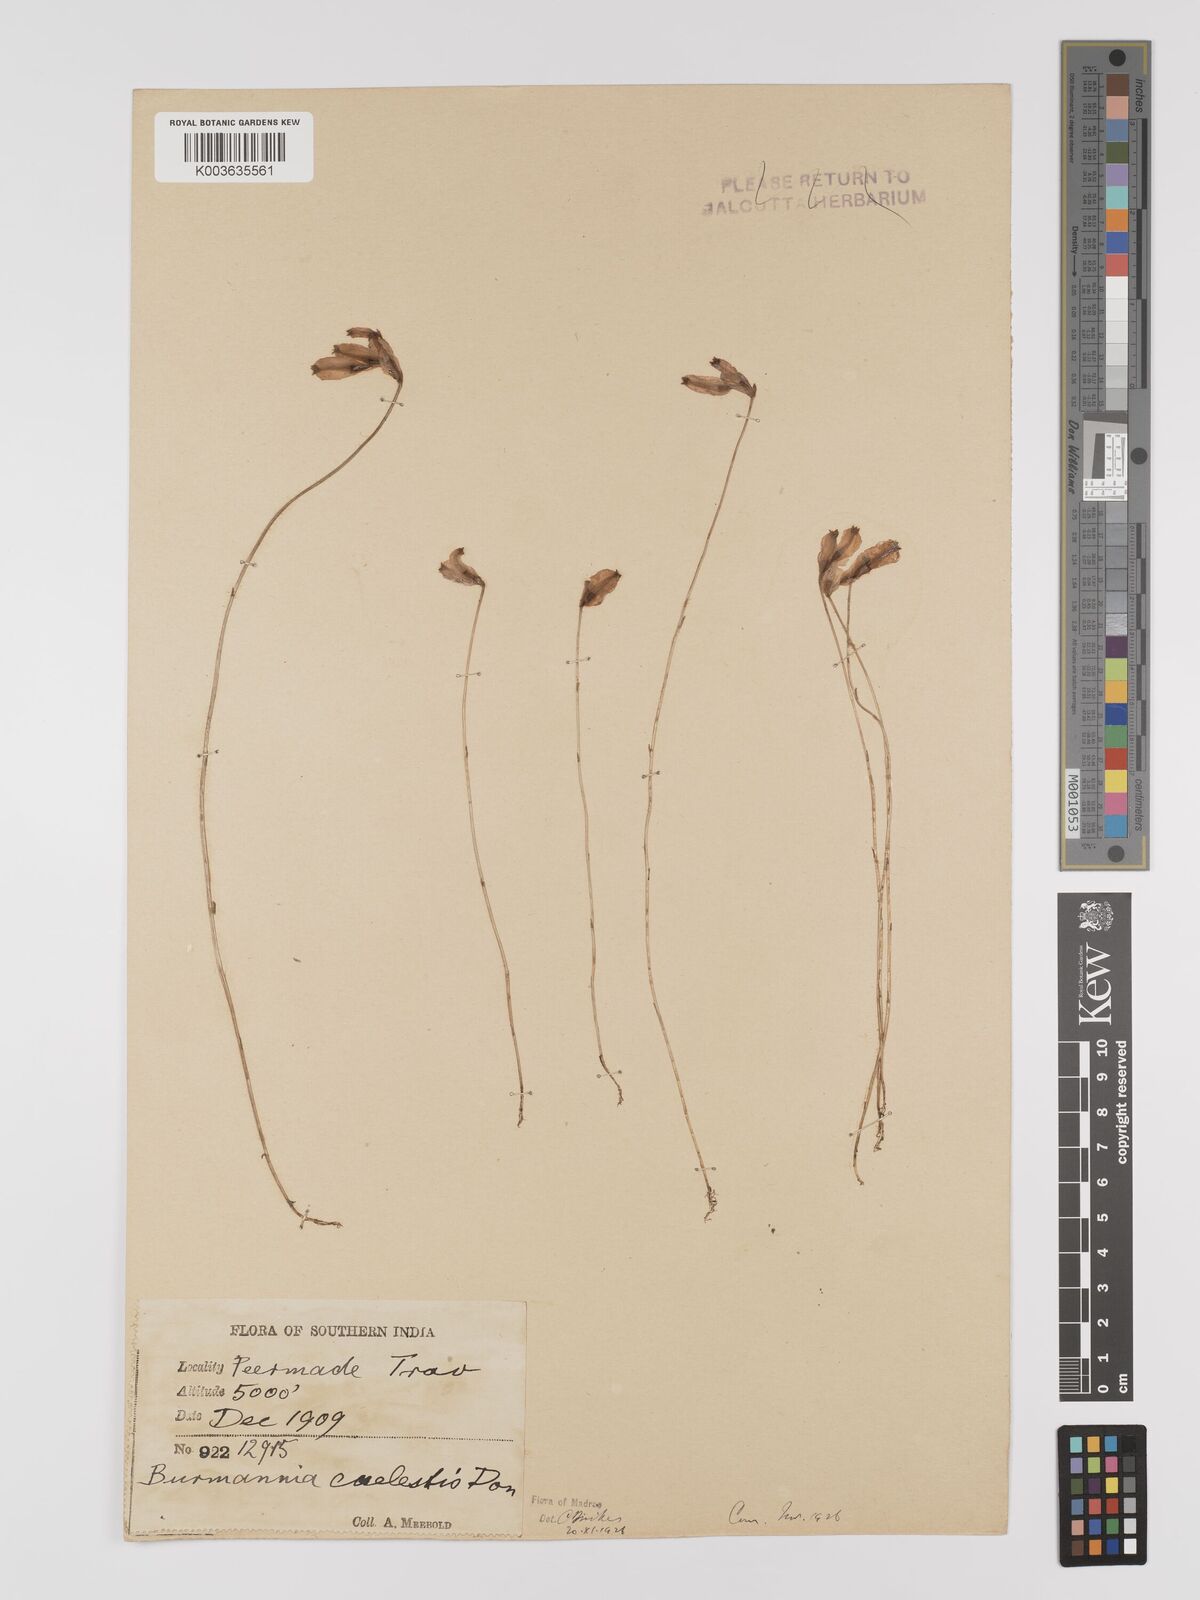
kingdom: Plantae
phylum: Tracheophyta
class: Liliopsida
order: Dioscoreales
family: Burmanniaceae
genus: Burmannia
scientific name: Burmannia coelestis
